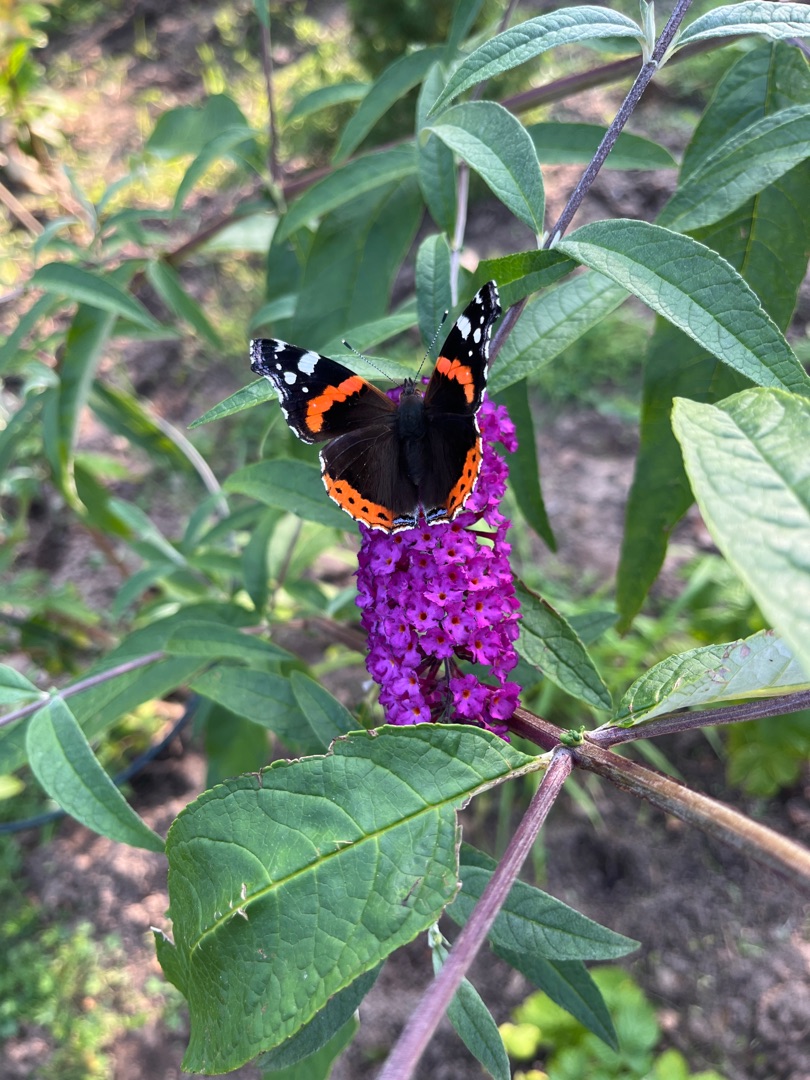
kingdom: Animalia
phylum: Arthropoda
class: Insecta
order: Lepidoptera
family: Nymphalidae
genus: Vanessa
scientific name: Vanessa atalanta
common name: Admiral
